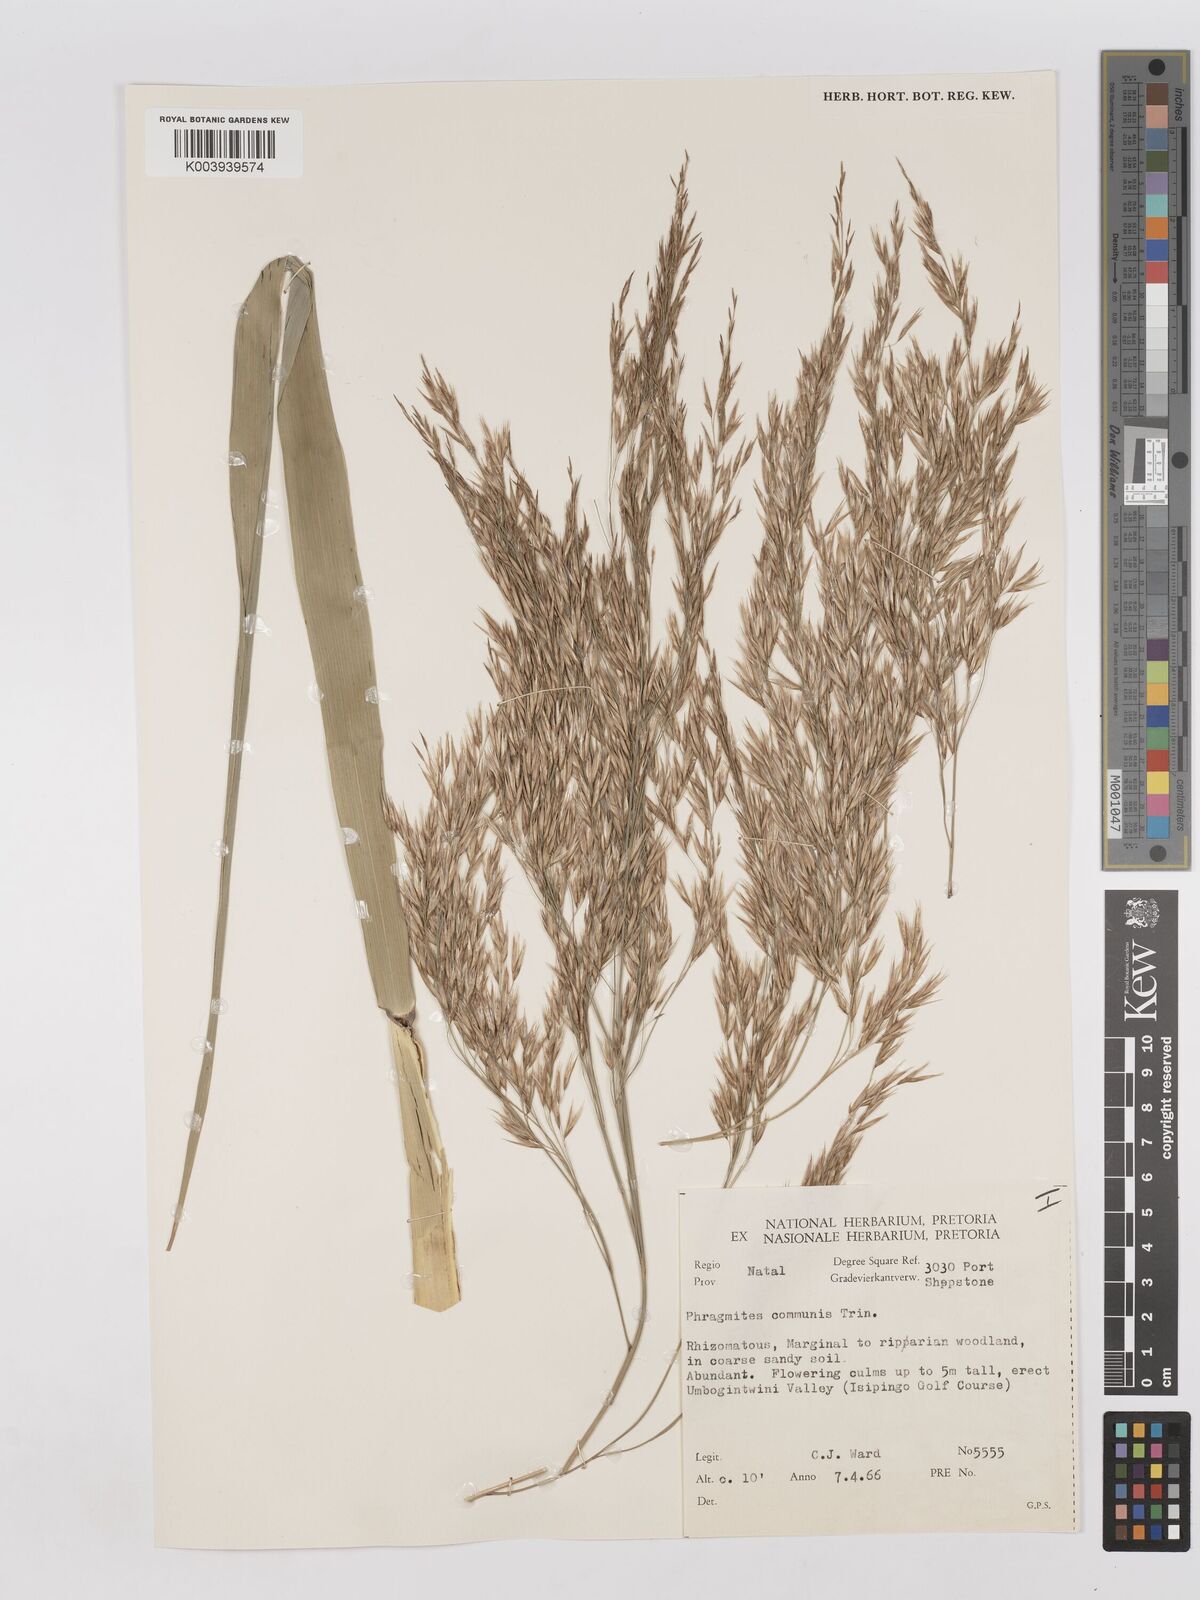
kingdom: Plantae
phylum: Tracheophyta
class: Liliopsida
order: Poales
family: Poaceae
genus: Phragmites
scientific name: Phragmites mauritianus
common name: Reed grass
